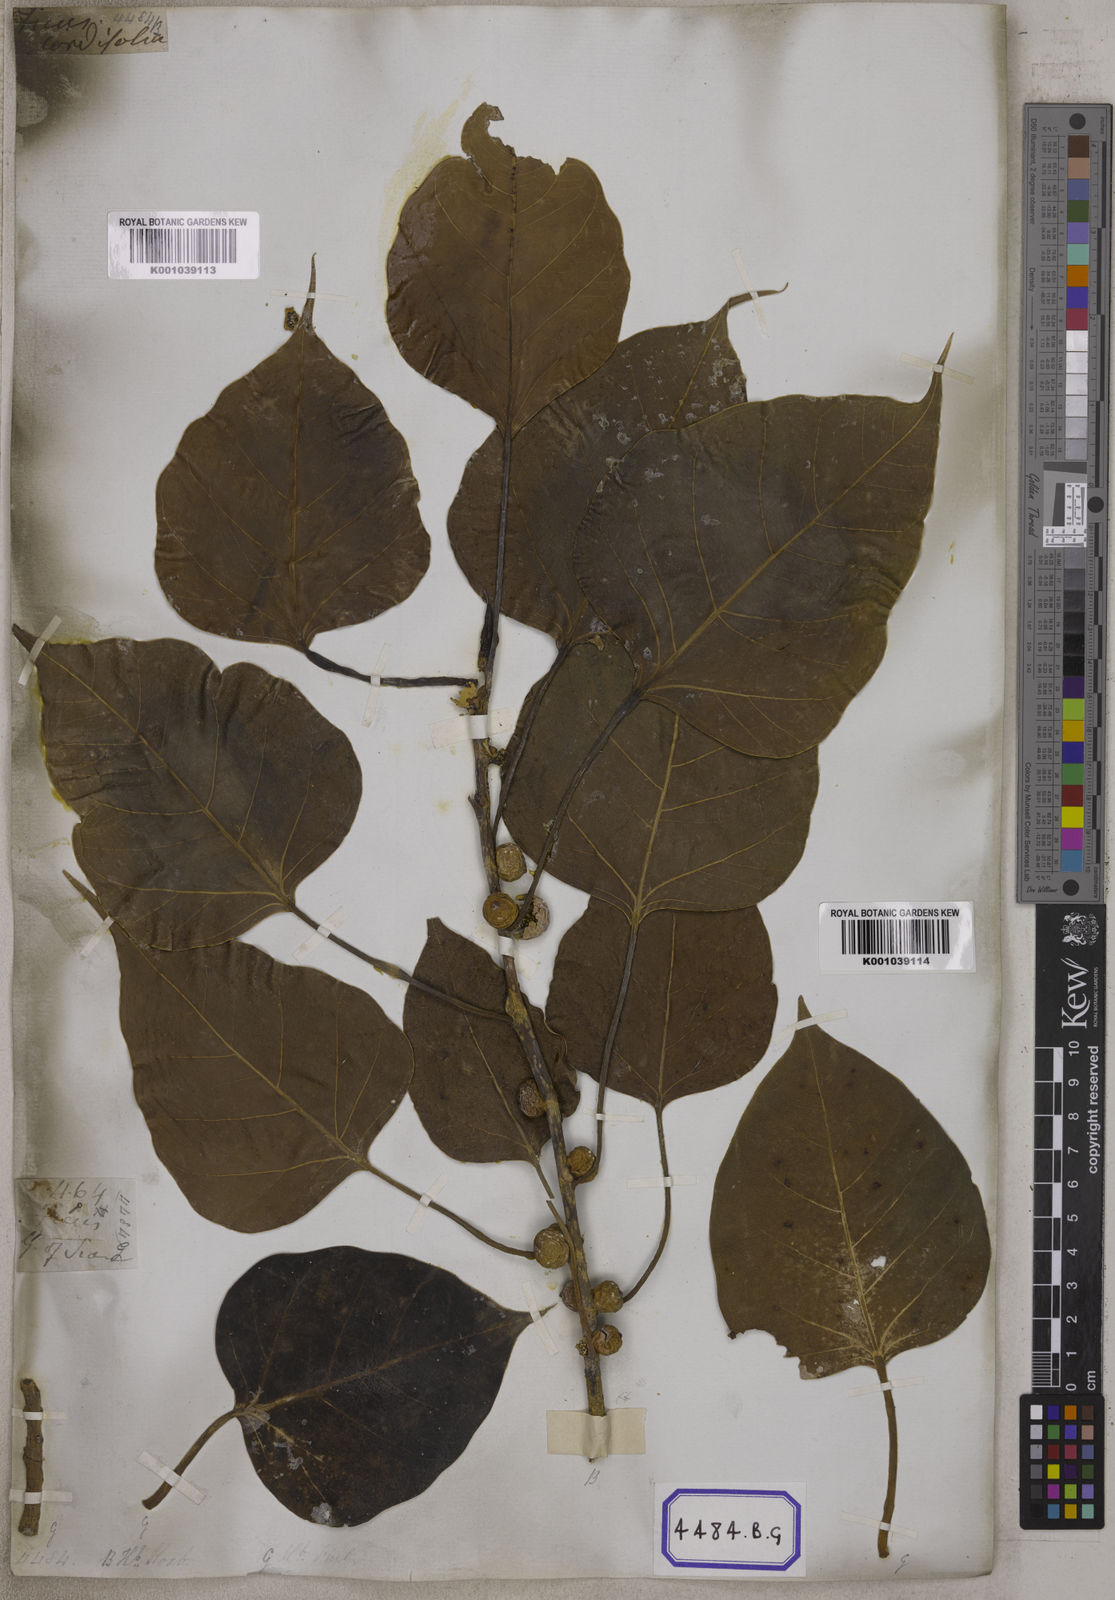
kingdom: Plantae
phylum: Tracheophyta
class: Magnoliopsida
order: Rosales
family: Moraceae
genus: Ficus
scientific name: Ficus rumphii
